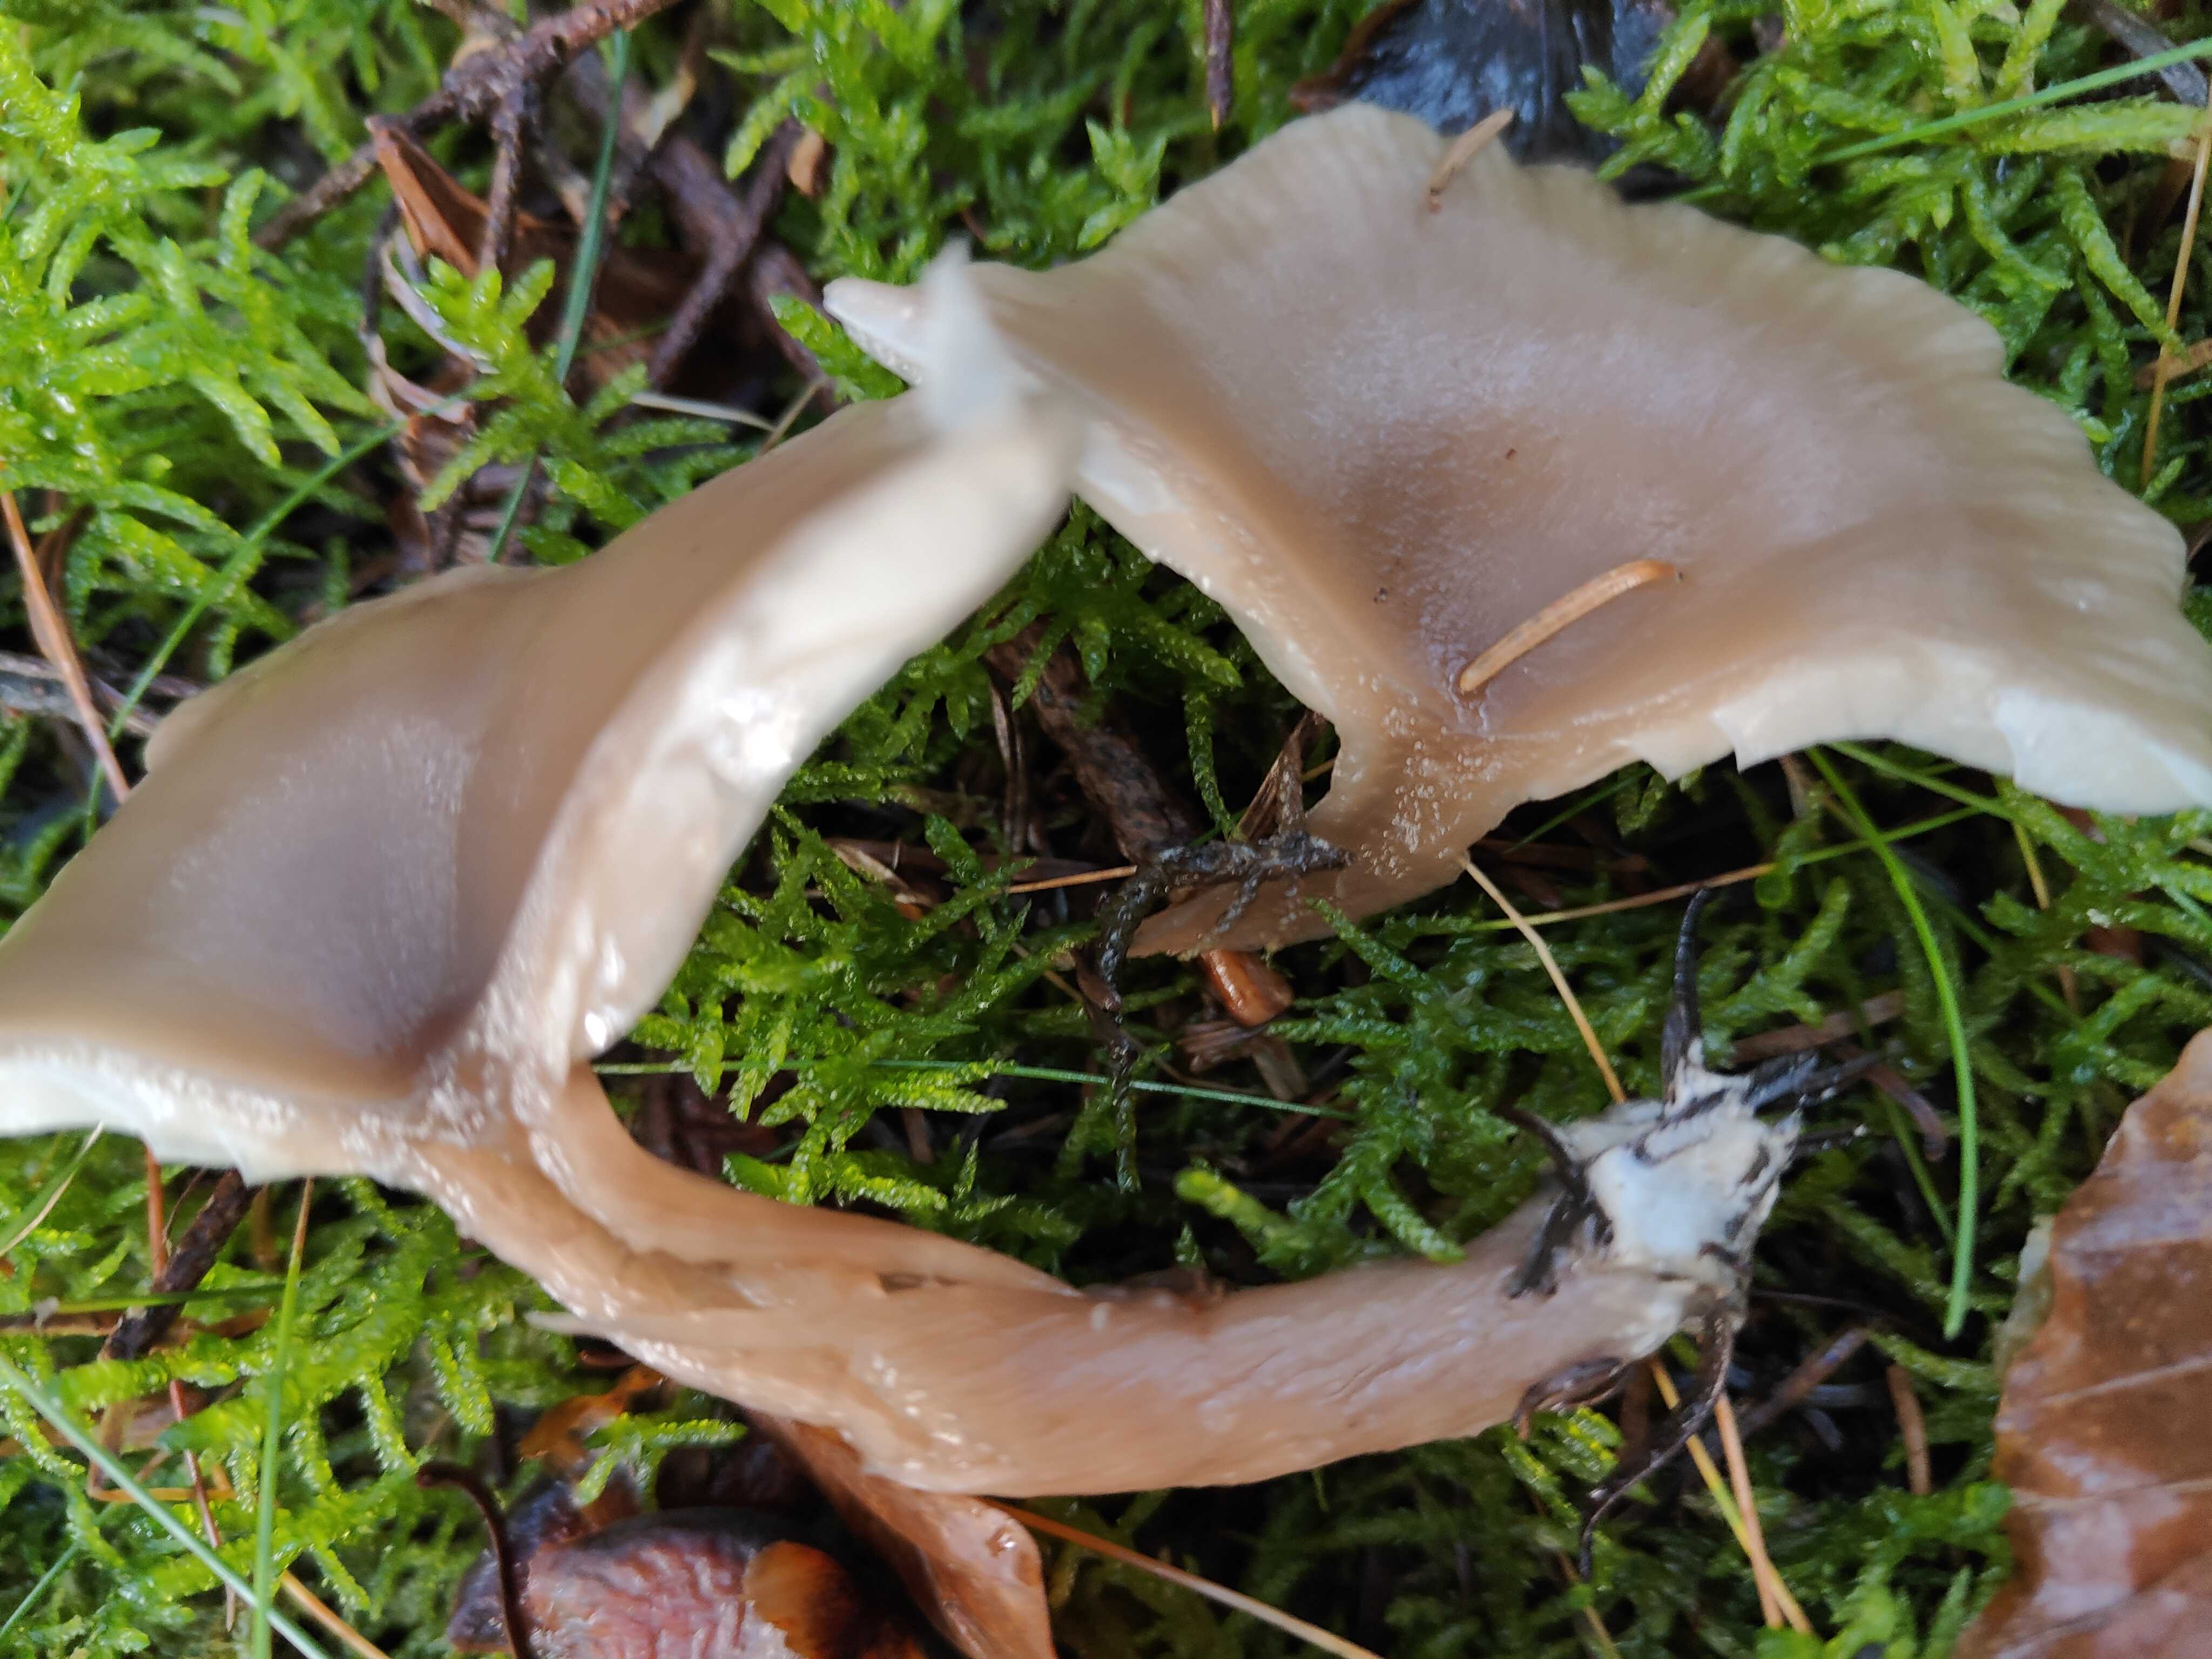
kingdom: Fungi
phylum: Basidiomycota
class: Agaricomycetes
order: Agaricales
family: Pseudoclitocybaceae
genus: Pseudoclitocybe
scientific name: Pseudoclitocybe cyathiformis
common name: almindelig bægertragthat
